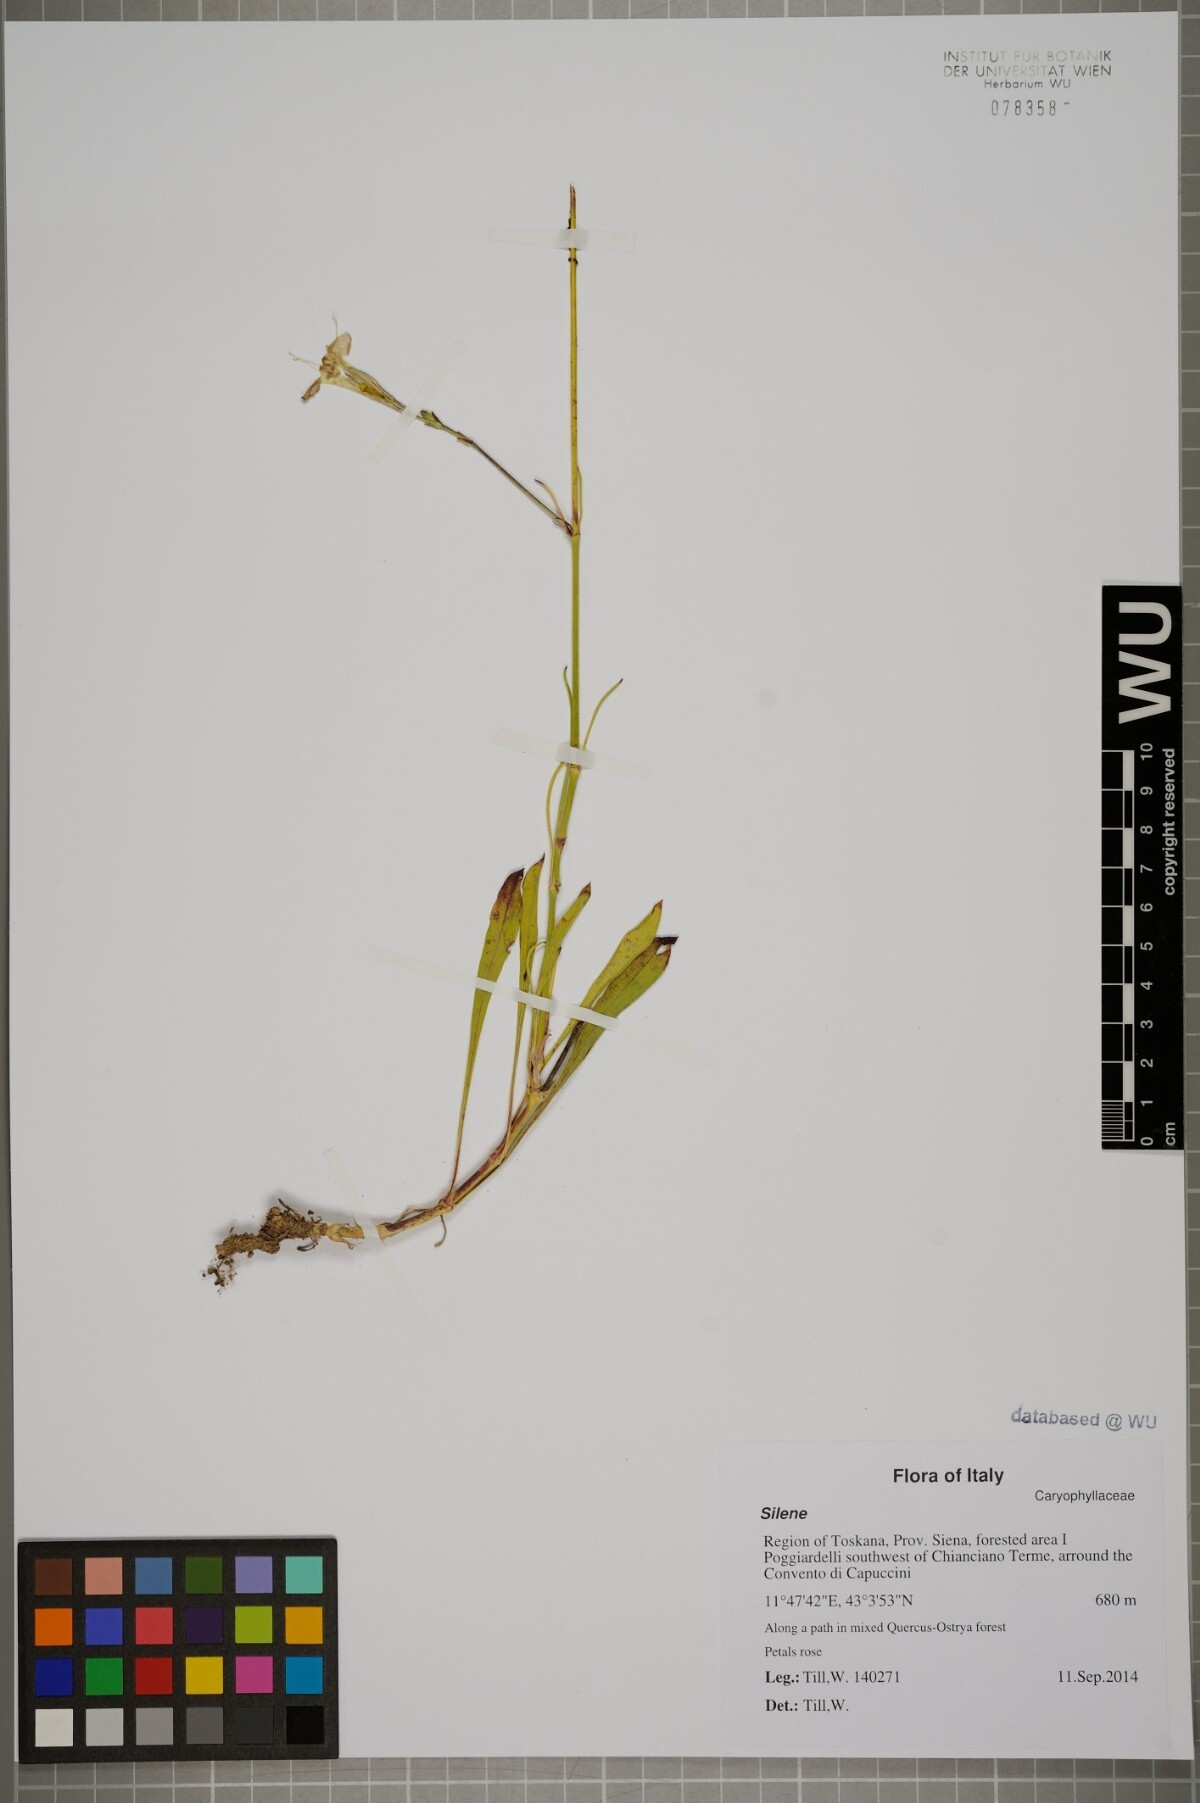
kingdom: Plantae
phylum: Tracheophyta
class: Magnoliopsida
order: Caryophyllales
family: Caryophyllaceae
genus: Silene
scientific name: Silene
